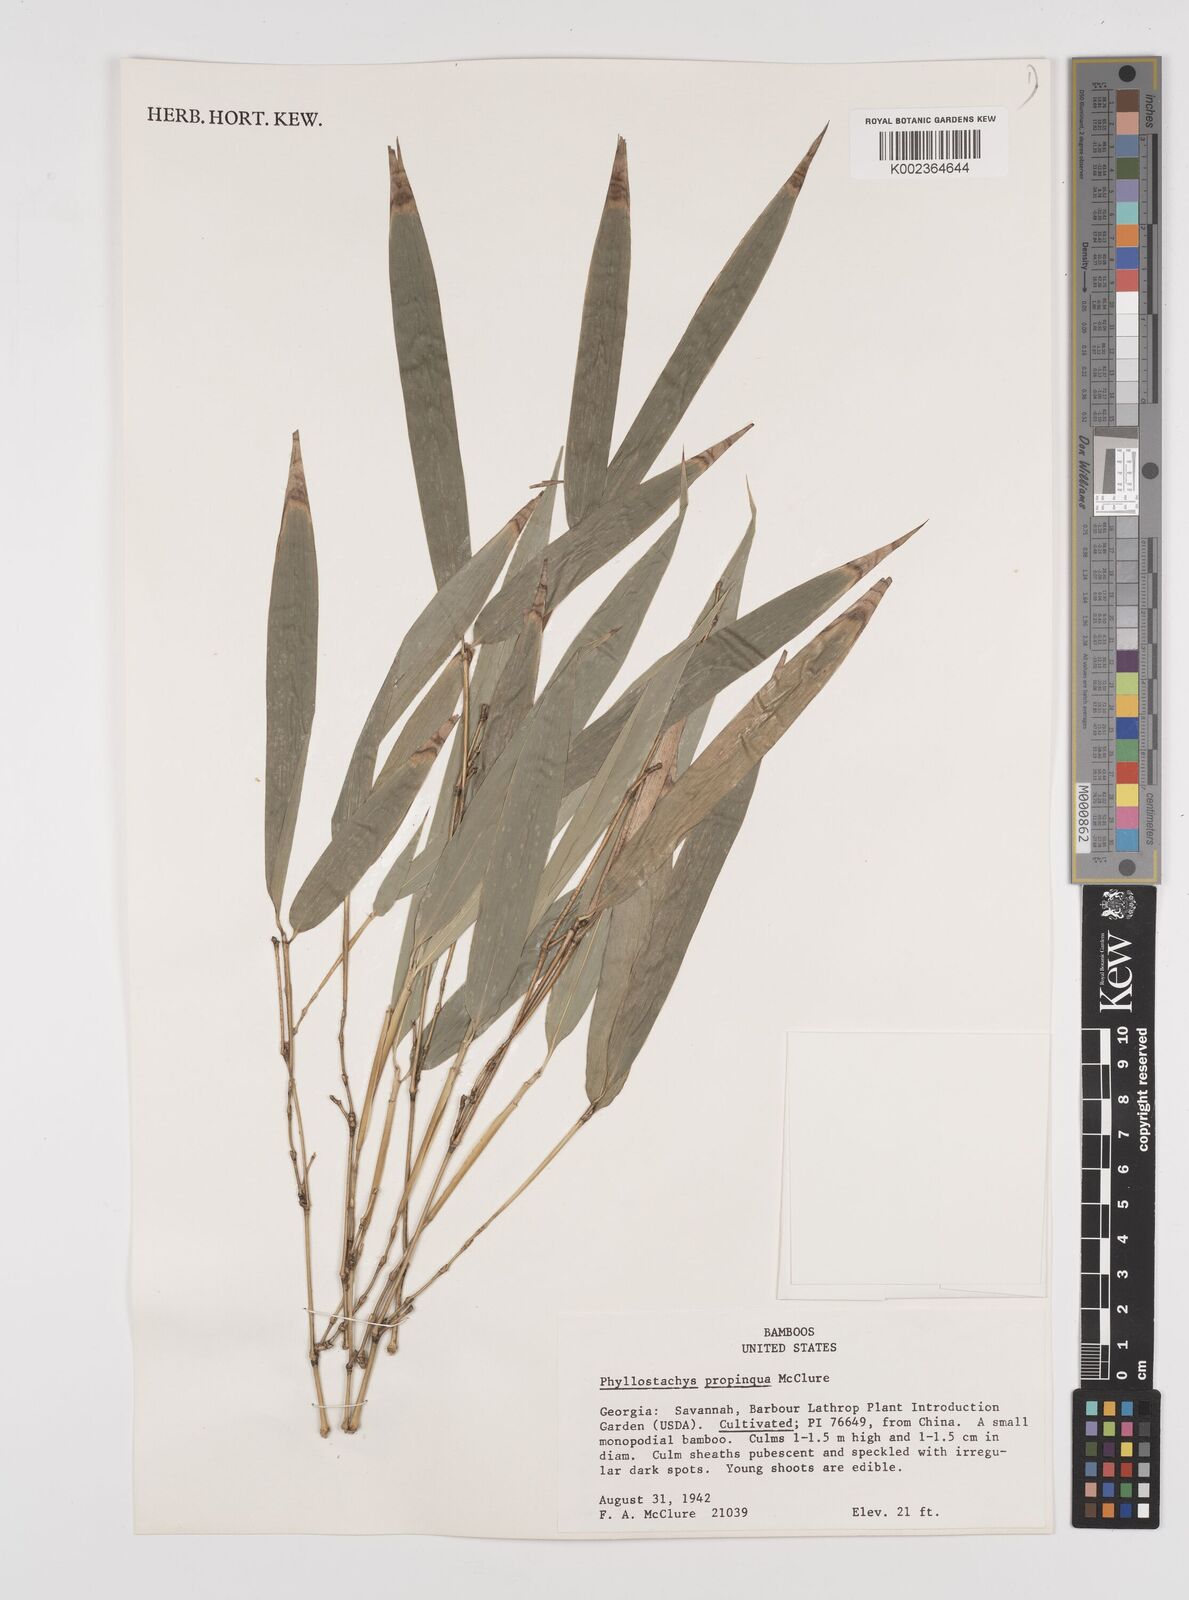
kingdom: Plantae
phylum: Tracheophyta
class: Liliopsida
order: Poales
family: Poaceae
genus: Phyllostachys
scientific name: Phyllostachys propinqua
